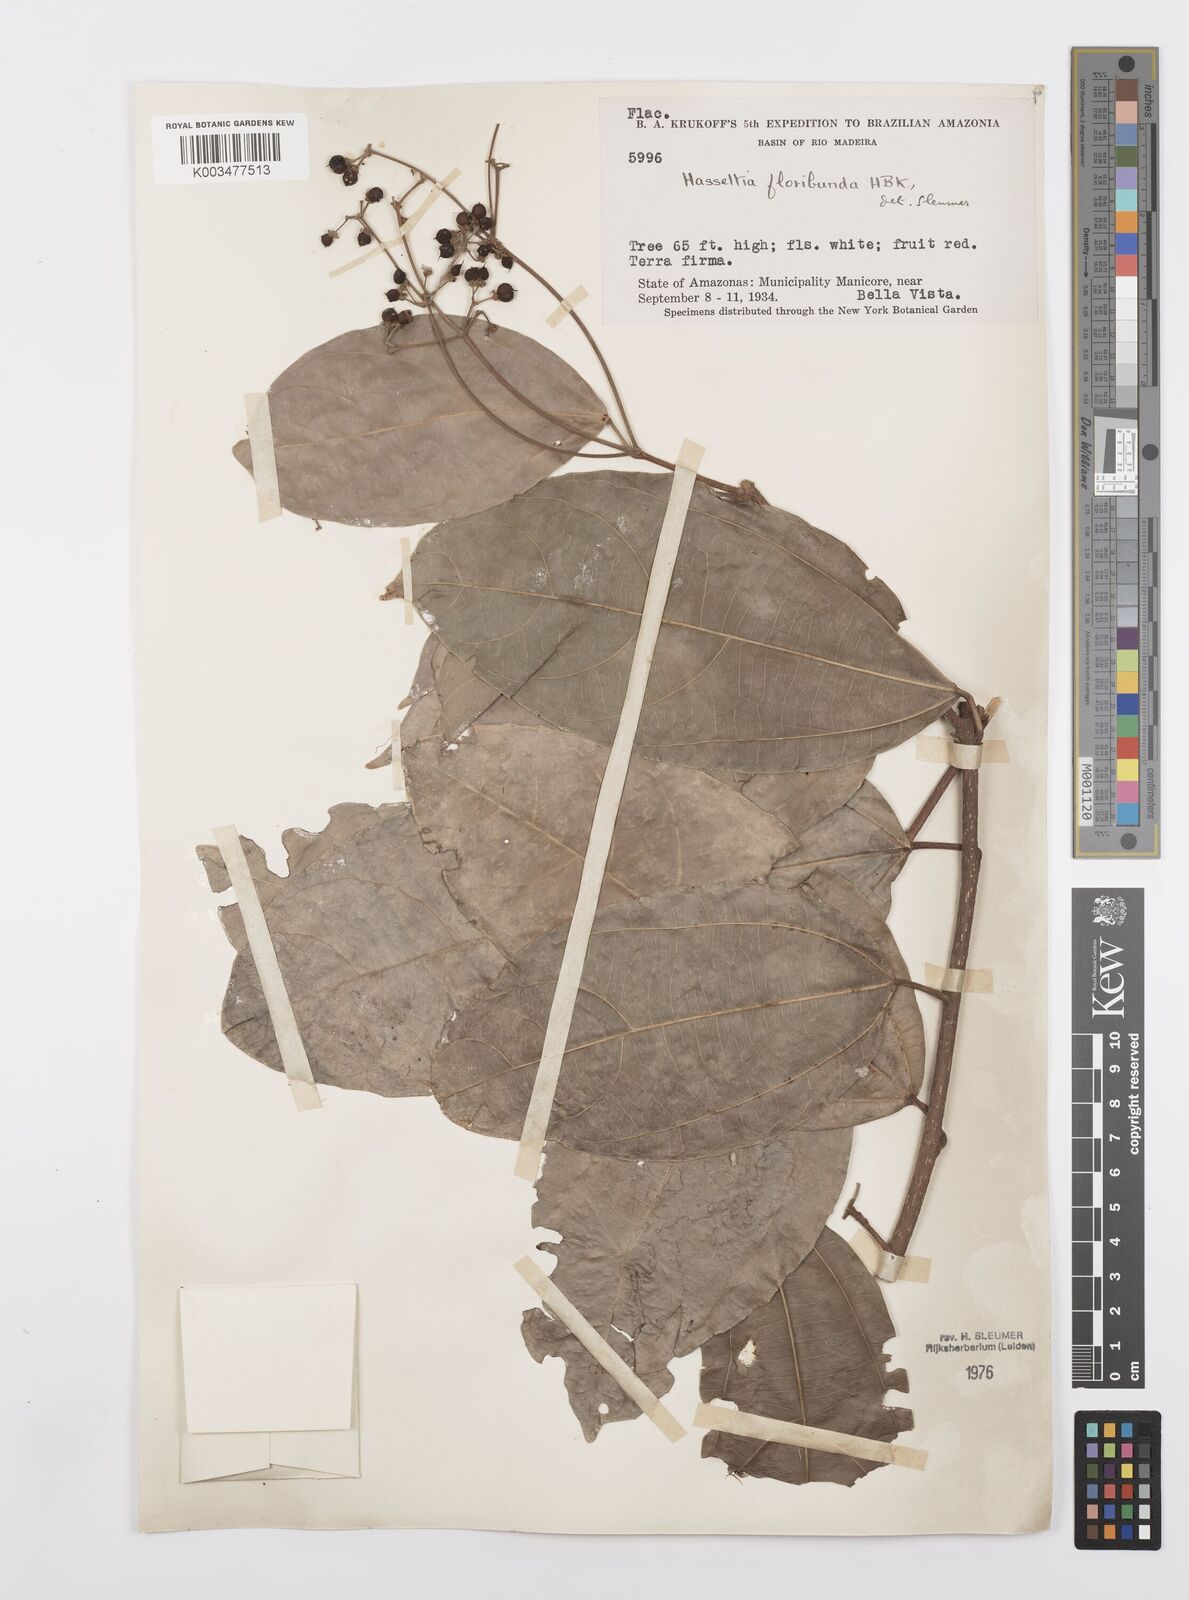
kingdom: Plantae
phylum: Tracheophyta
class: Magnoliopsida
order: Malpighiales
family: Salicaceae
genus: Hasseltia
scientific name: Hasseltia floribunda
